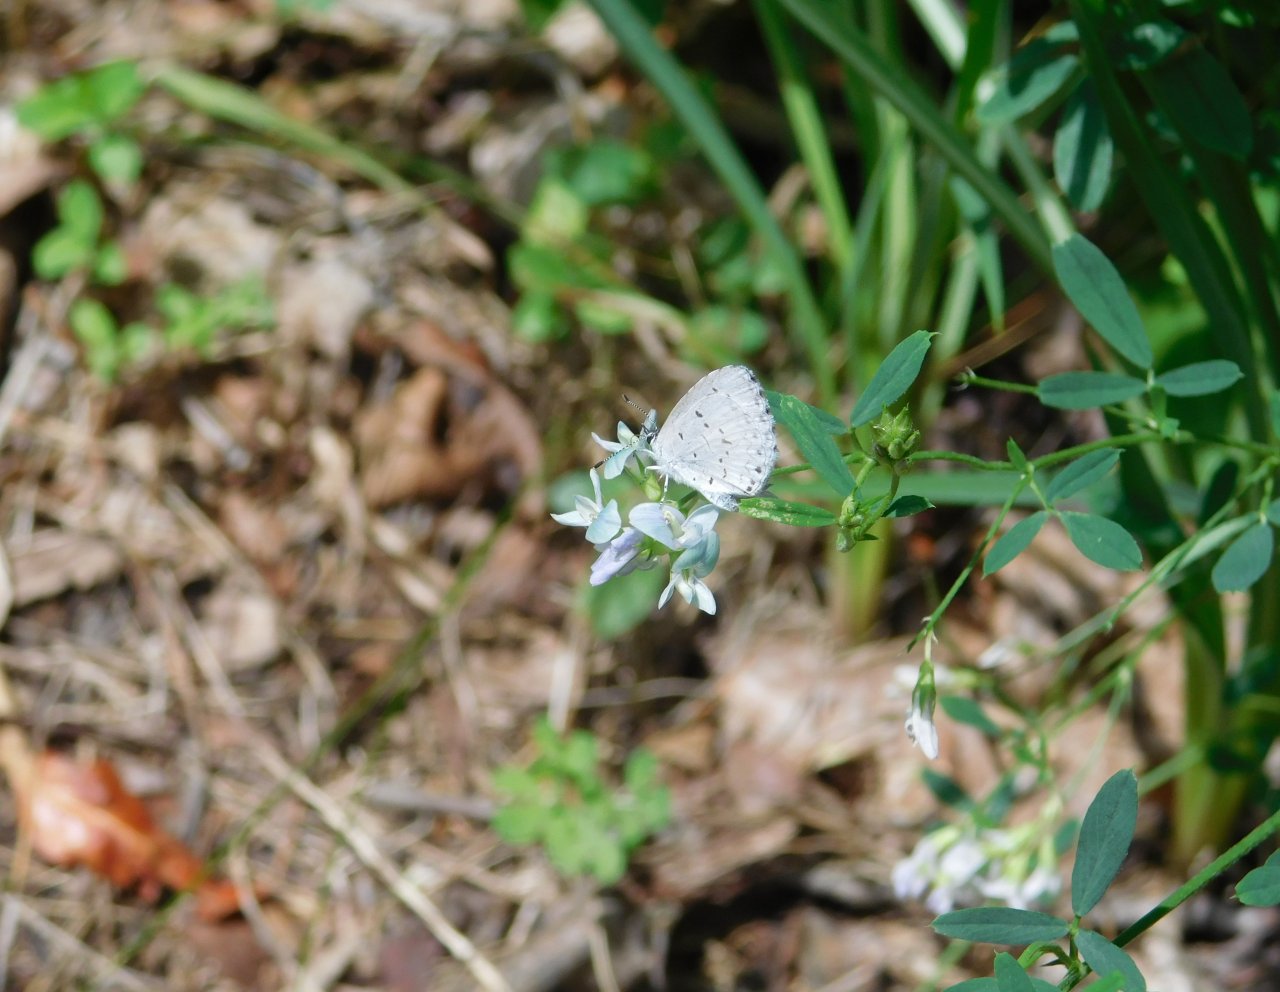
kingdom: Animalia
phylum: Arthropoda
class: Insecta
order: Lepidoptera
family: Lycaenidae
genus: Celastrina
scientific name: Celastrina lucia
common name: Northern Spring Azure
